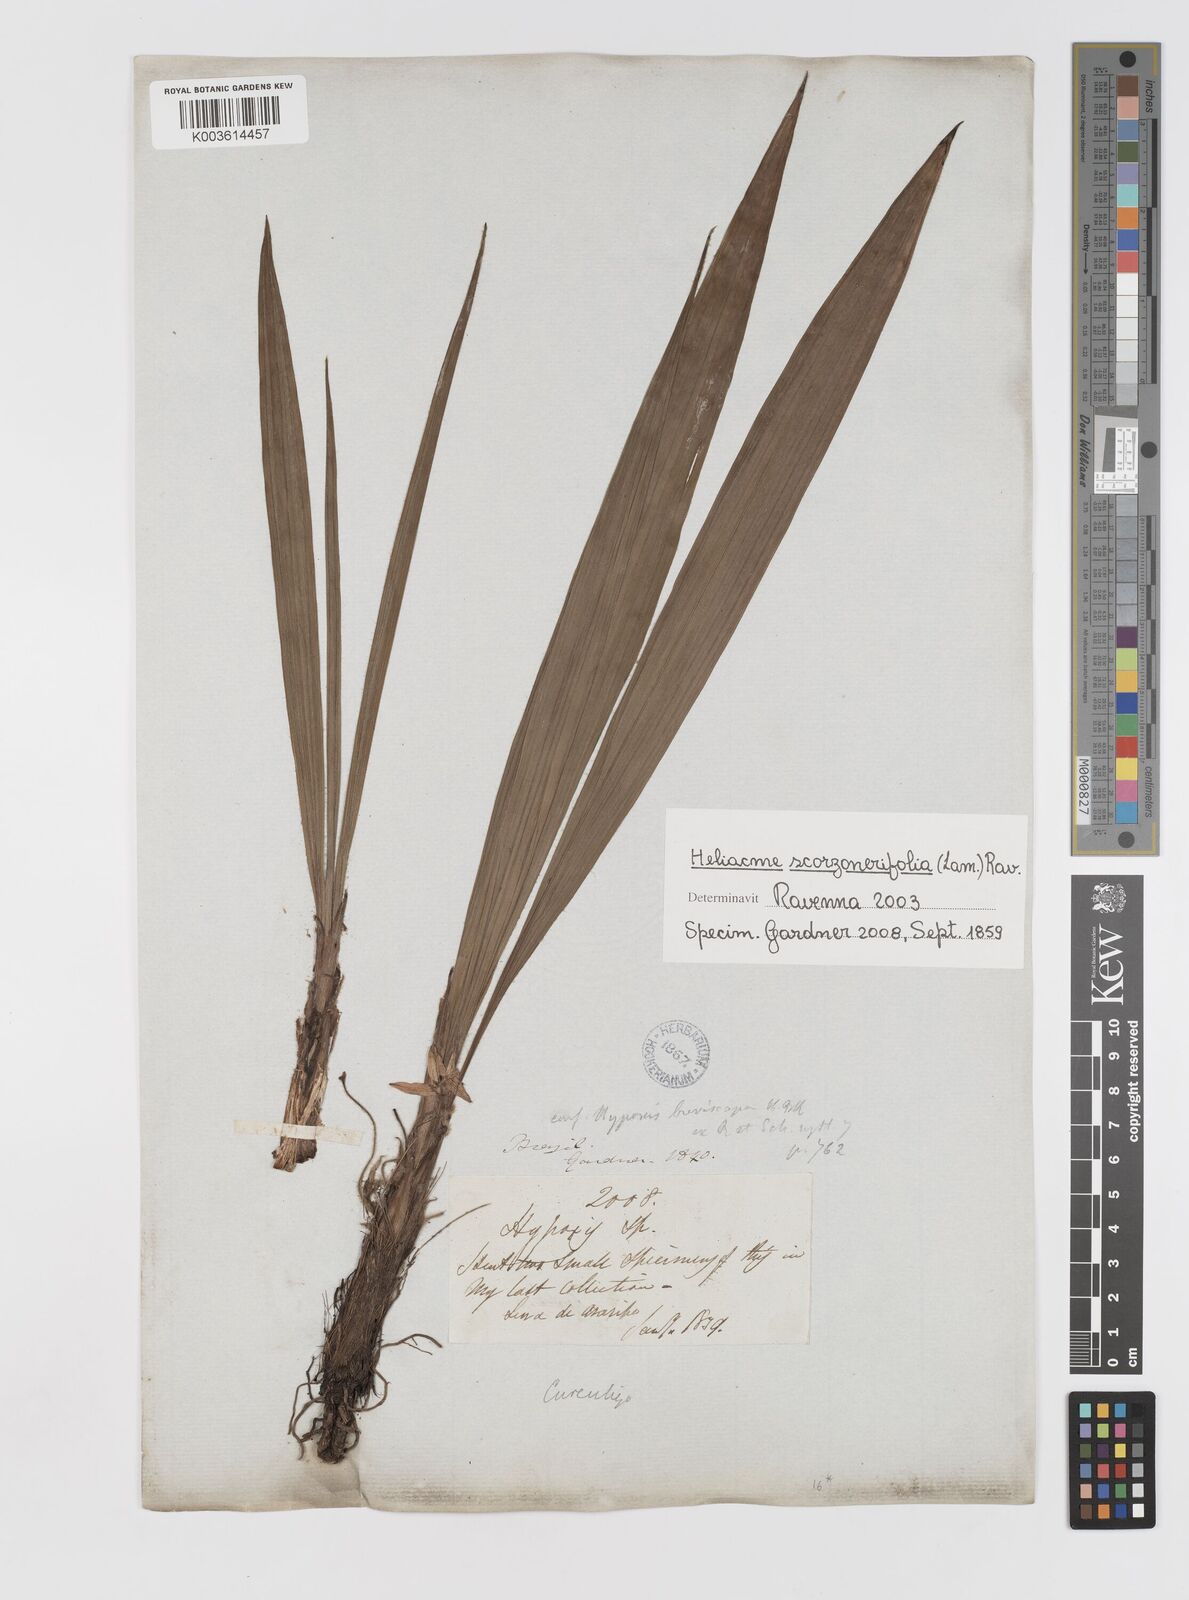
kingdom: Plantae
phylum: Tracheophyta
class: Liliopsida
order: Asparagales
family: Hypoxidaceae
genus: Curculigo
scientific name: Curculigo scorzonerifolia
